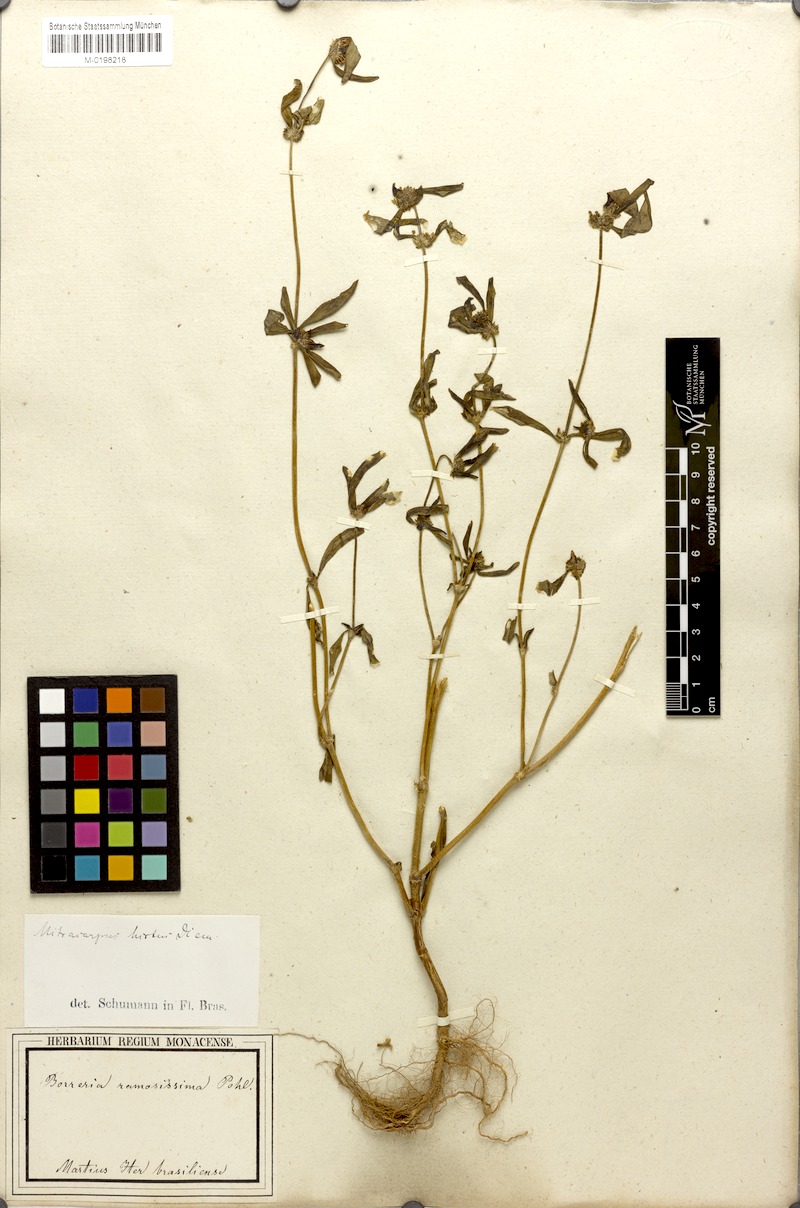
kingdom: Plantae
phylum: Tracheophyta
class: Magnoliopsida
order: Gentianales
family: Rubiaceae
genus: Mitracarpus
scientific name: Mitracarpus hirtus
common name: Tropical girdlepod
